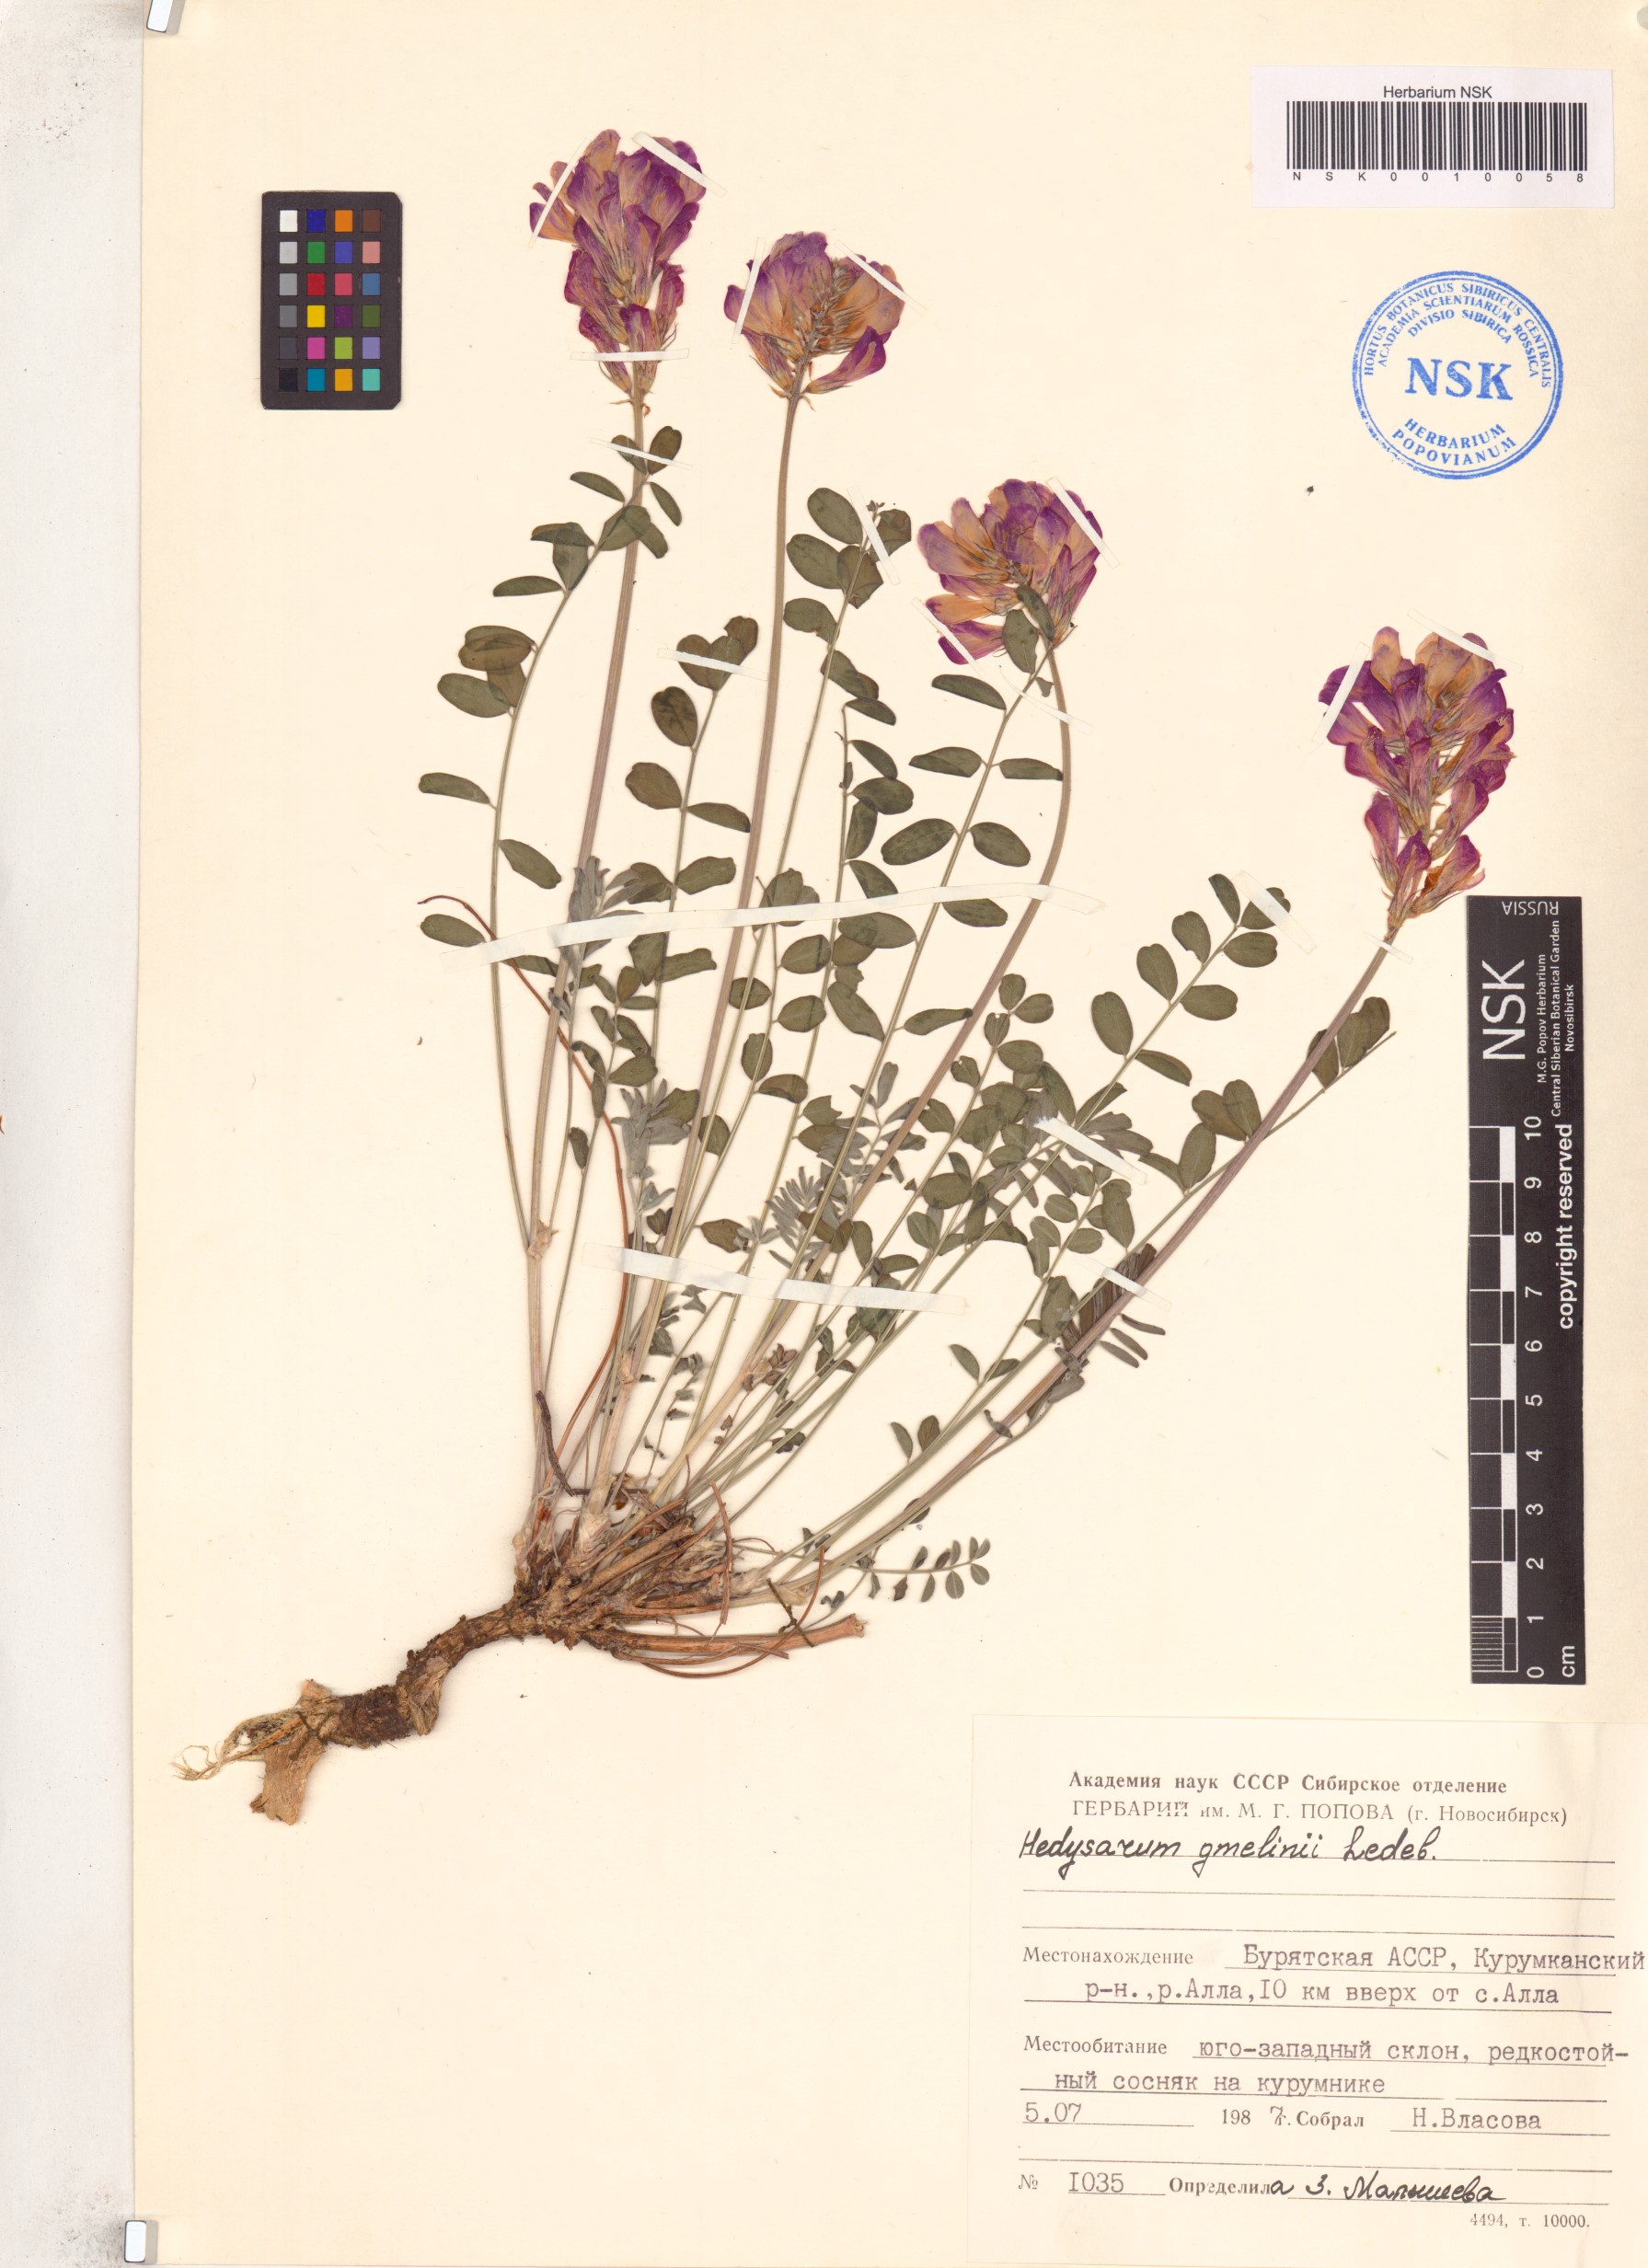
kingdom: Plantae
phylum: Tracheophyta
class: Magnoliopsida
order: Fabales
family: Fabaceae
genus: Hedysarum
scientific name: Hedysarum gmelinii
